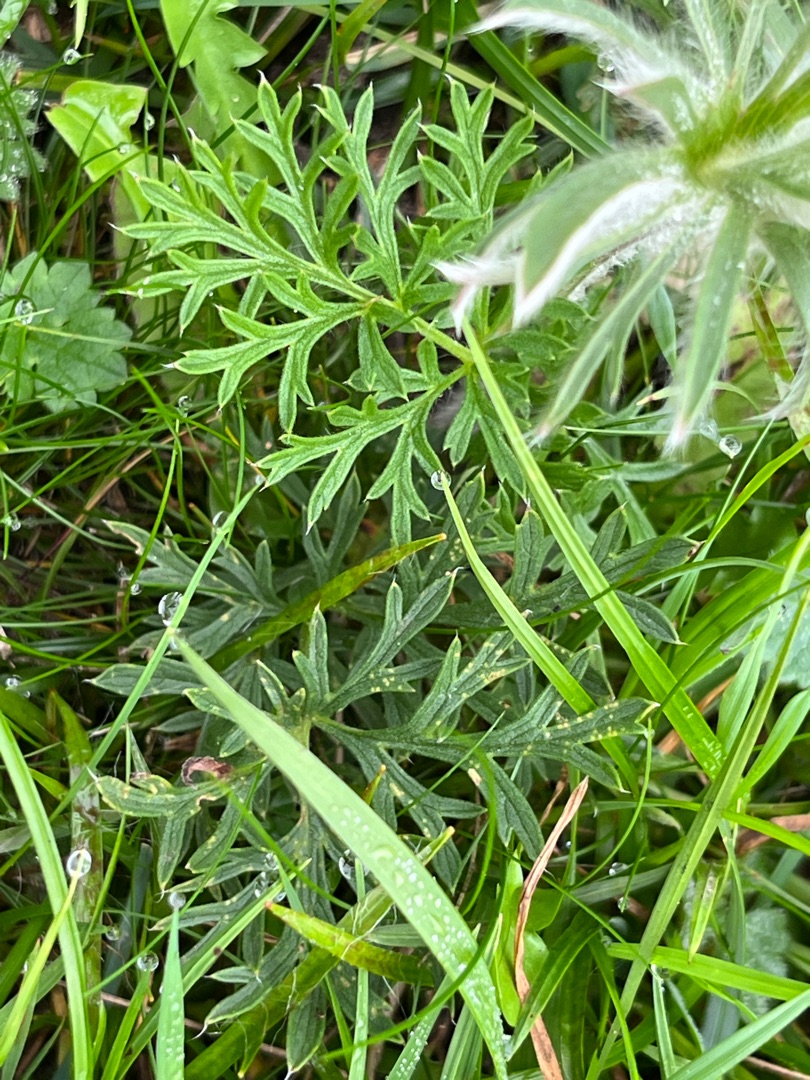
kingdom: Plantae
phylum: Tracheophyta
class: Magnoliopsida
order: Ranunculales
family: Ranunculaceae
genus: Pulsatilla
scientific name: Pulsatilla pratensis
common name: Nikkende kobjælde
